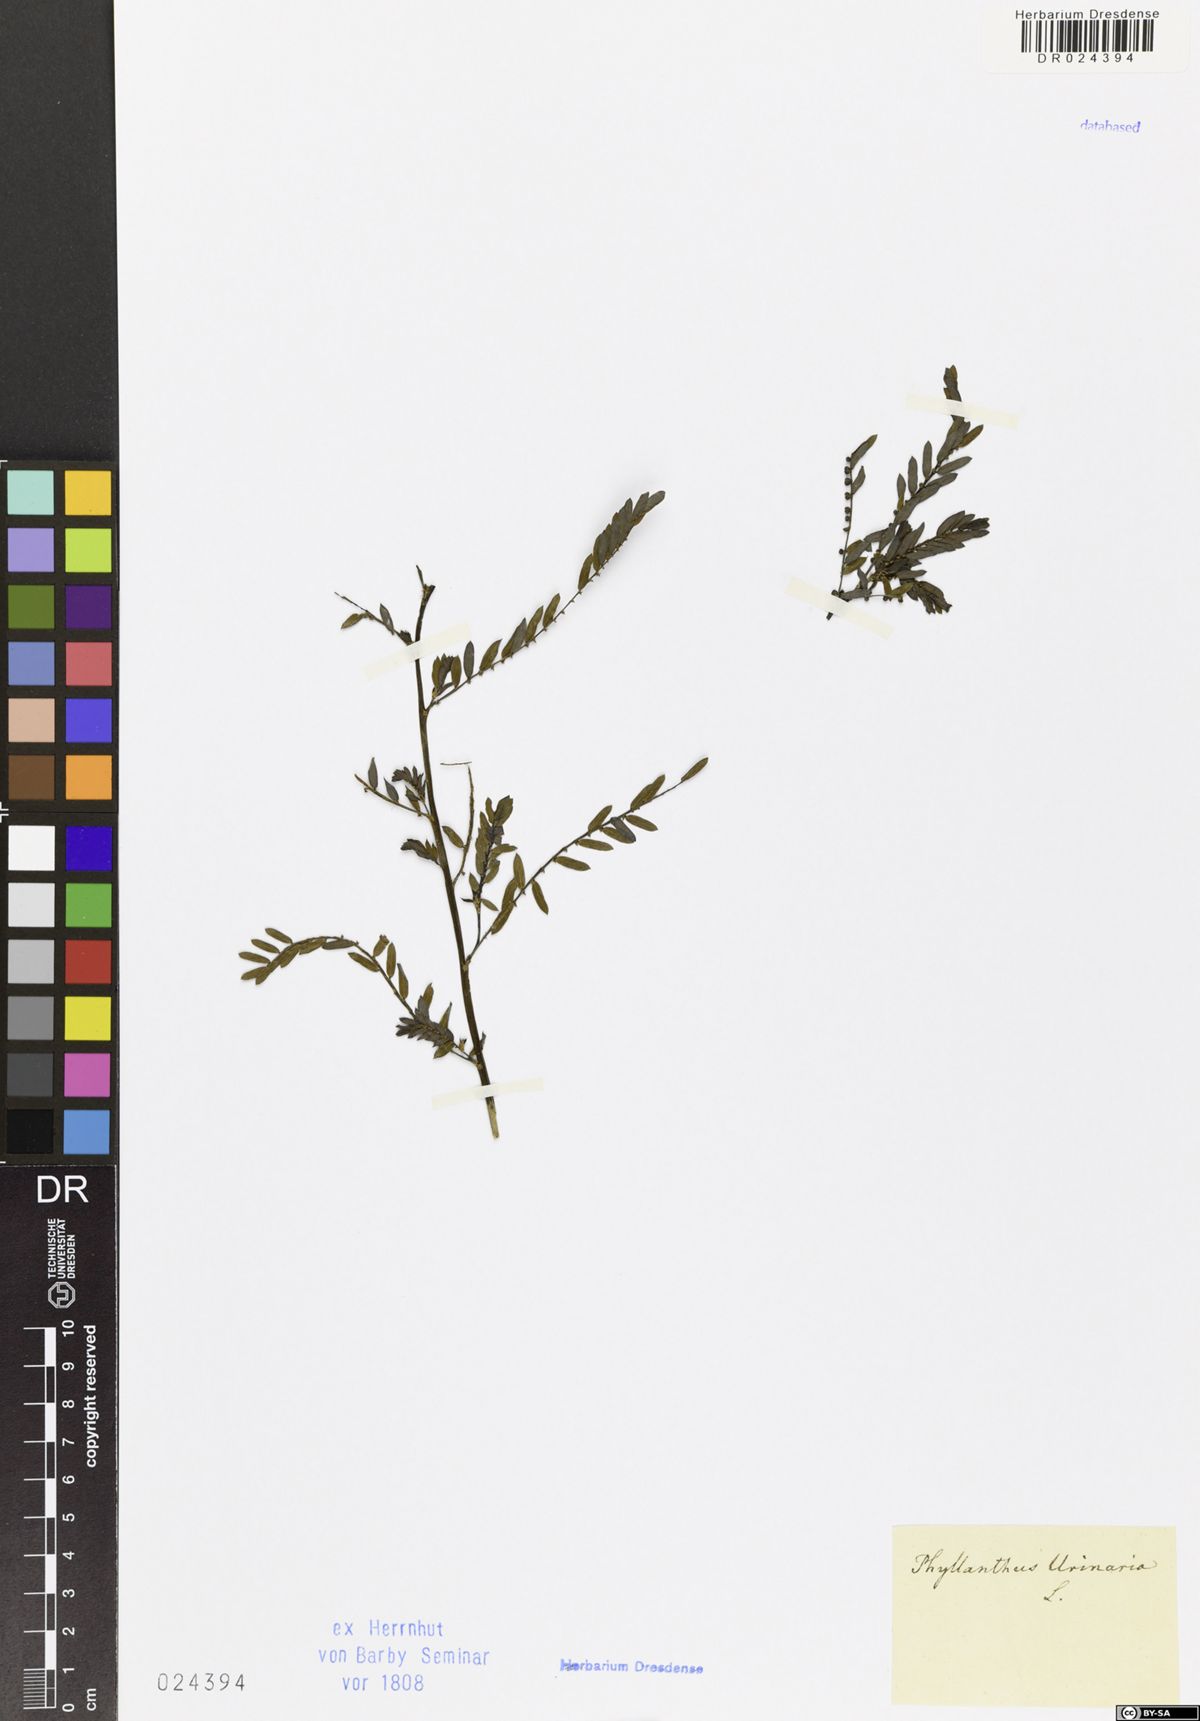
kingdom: Plantae
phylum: Tracheophyta
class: Magnoliopsida
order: Malpighiales
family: Phyllanthaceae
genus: Phyllanthus
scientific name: Phyllanthus urinaria
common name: Chamber bitter
